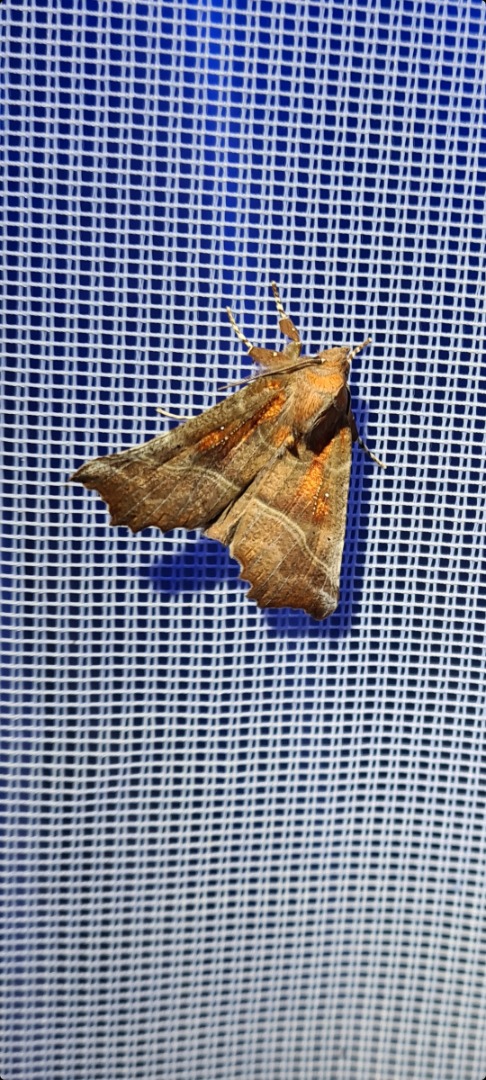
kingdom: Animalia
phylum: Arthropoda
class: Insecta
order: Lepidoptera
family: Erebidae
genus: Scoliopteryx
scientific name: Scoliopteryx libatrix
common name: Husmoderugle
